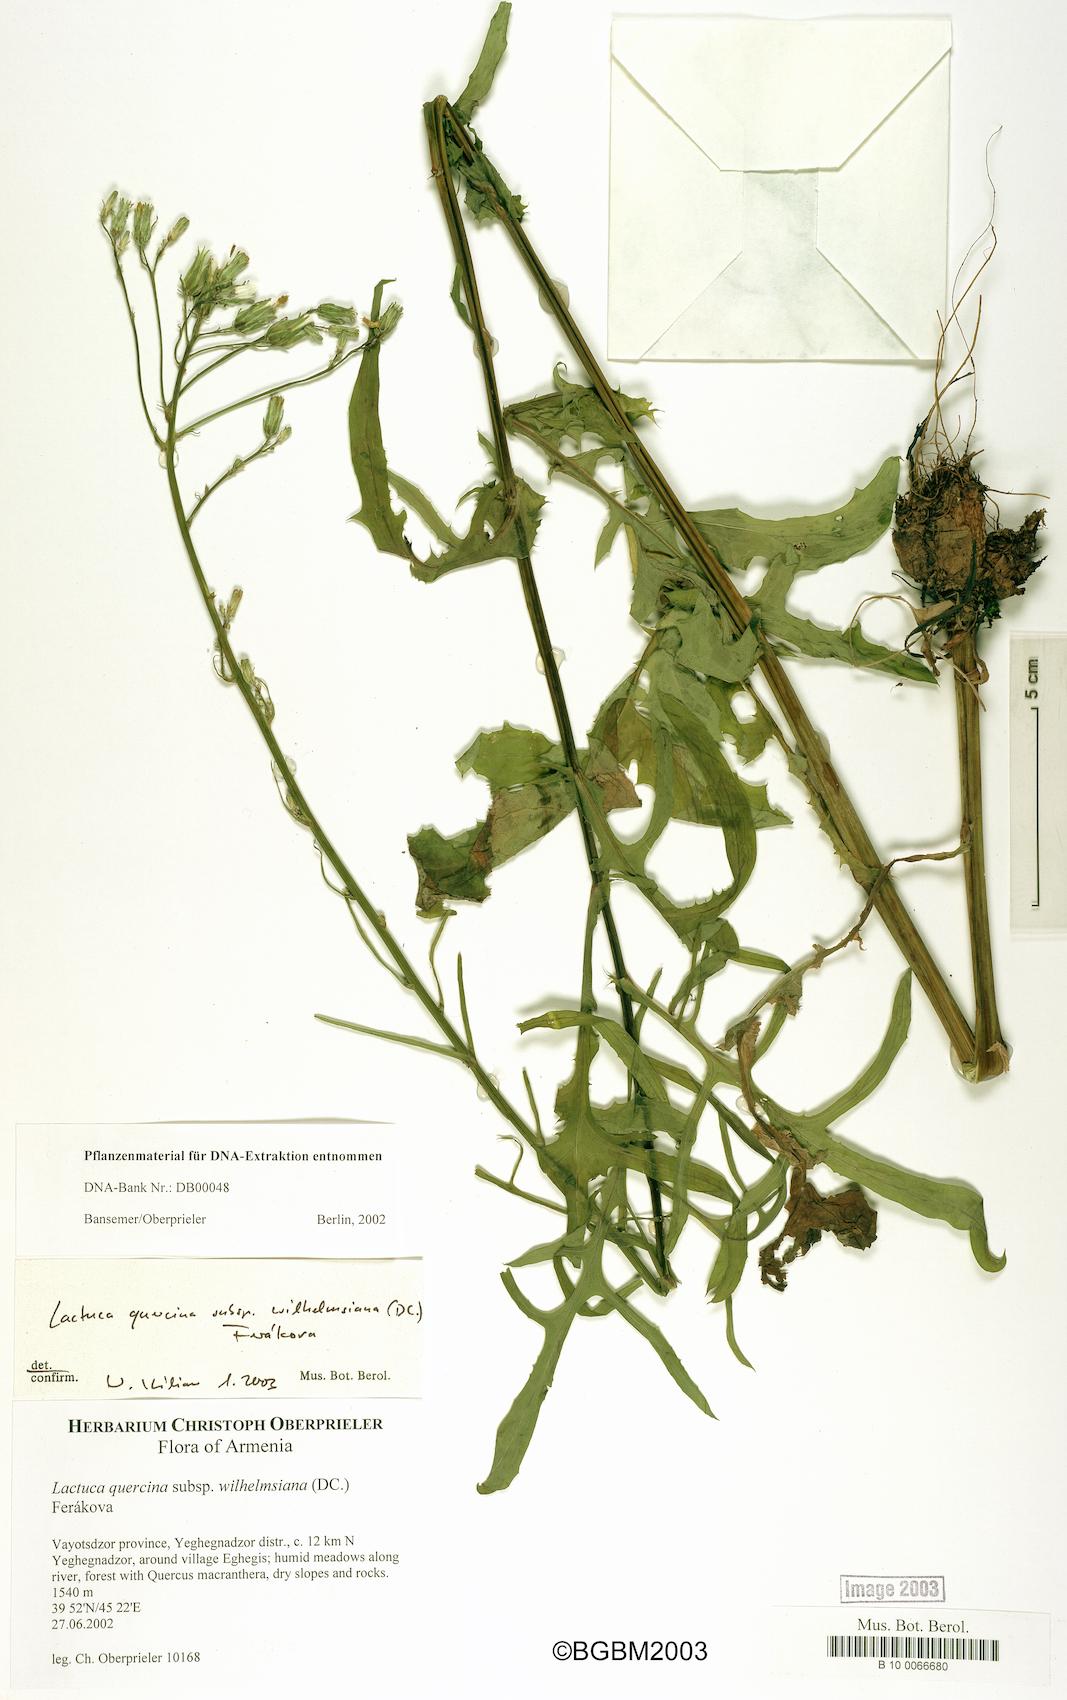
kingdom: Plantae
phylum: Tracheophyta
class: Magnoliopsida
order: Asterales
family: Asteraceae
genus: Lactuca
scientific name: Lactuca quercina
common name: Wild lettuce
